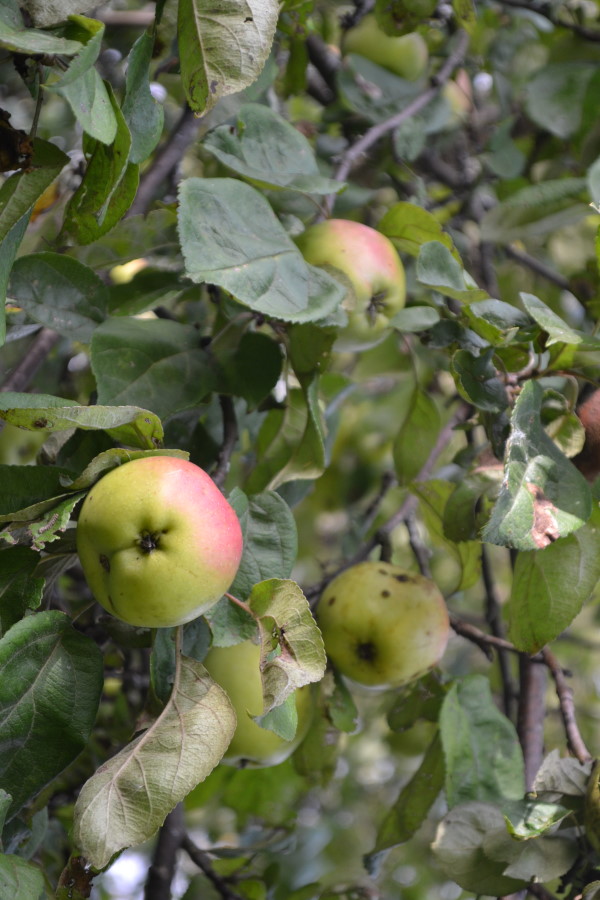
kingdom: Plantae
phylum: Tracheophyta
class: Magnoliopsida
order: Rosales
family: Rosaceae
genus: Malus
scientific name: Malus
